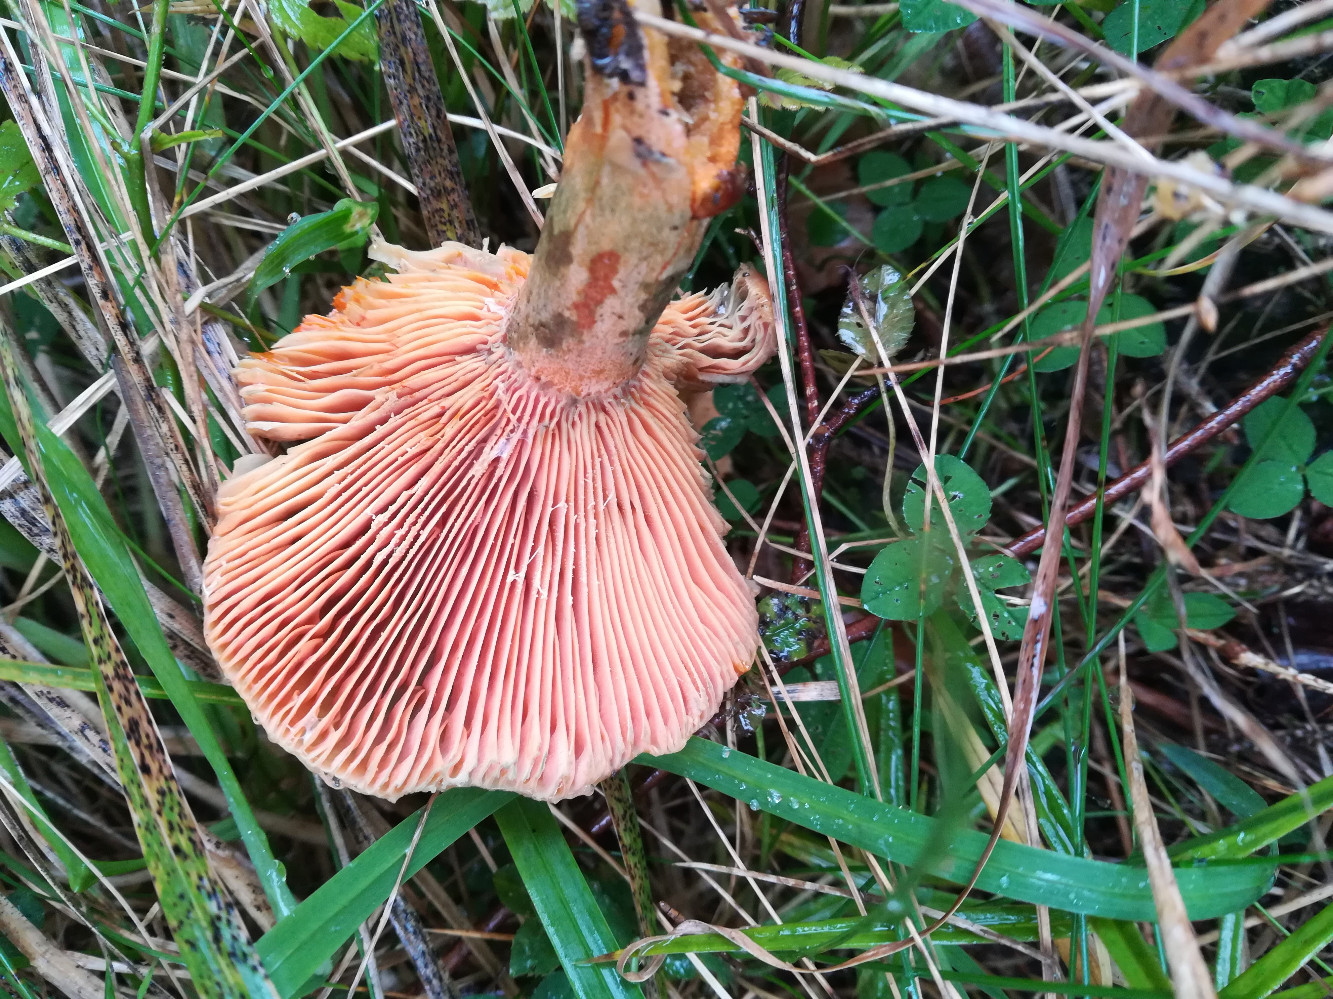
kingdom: Fungi
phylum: Basidiomycota
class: Agaricomycetes
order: Russulales
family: Russulaceae
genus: Lactarius
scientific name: Lactarius deterrimus
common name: gran-mælkehat
